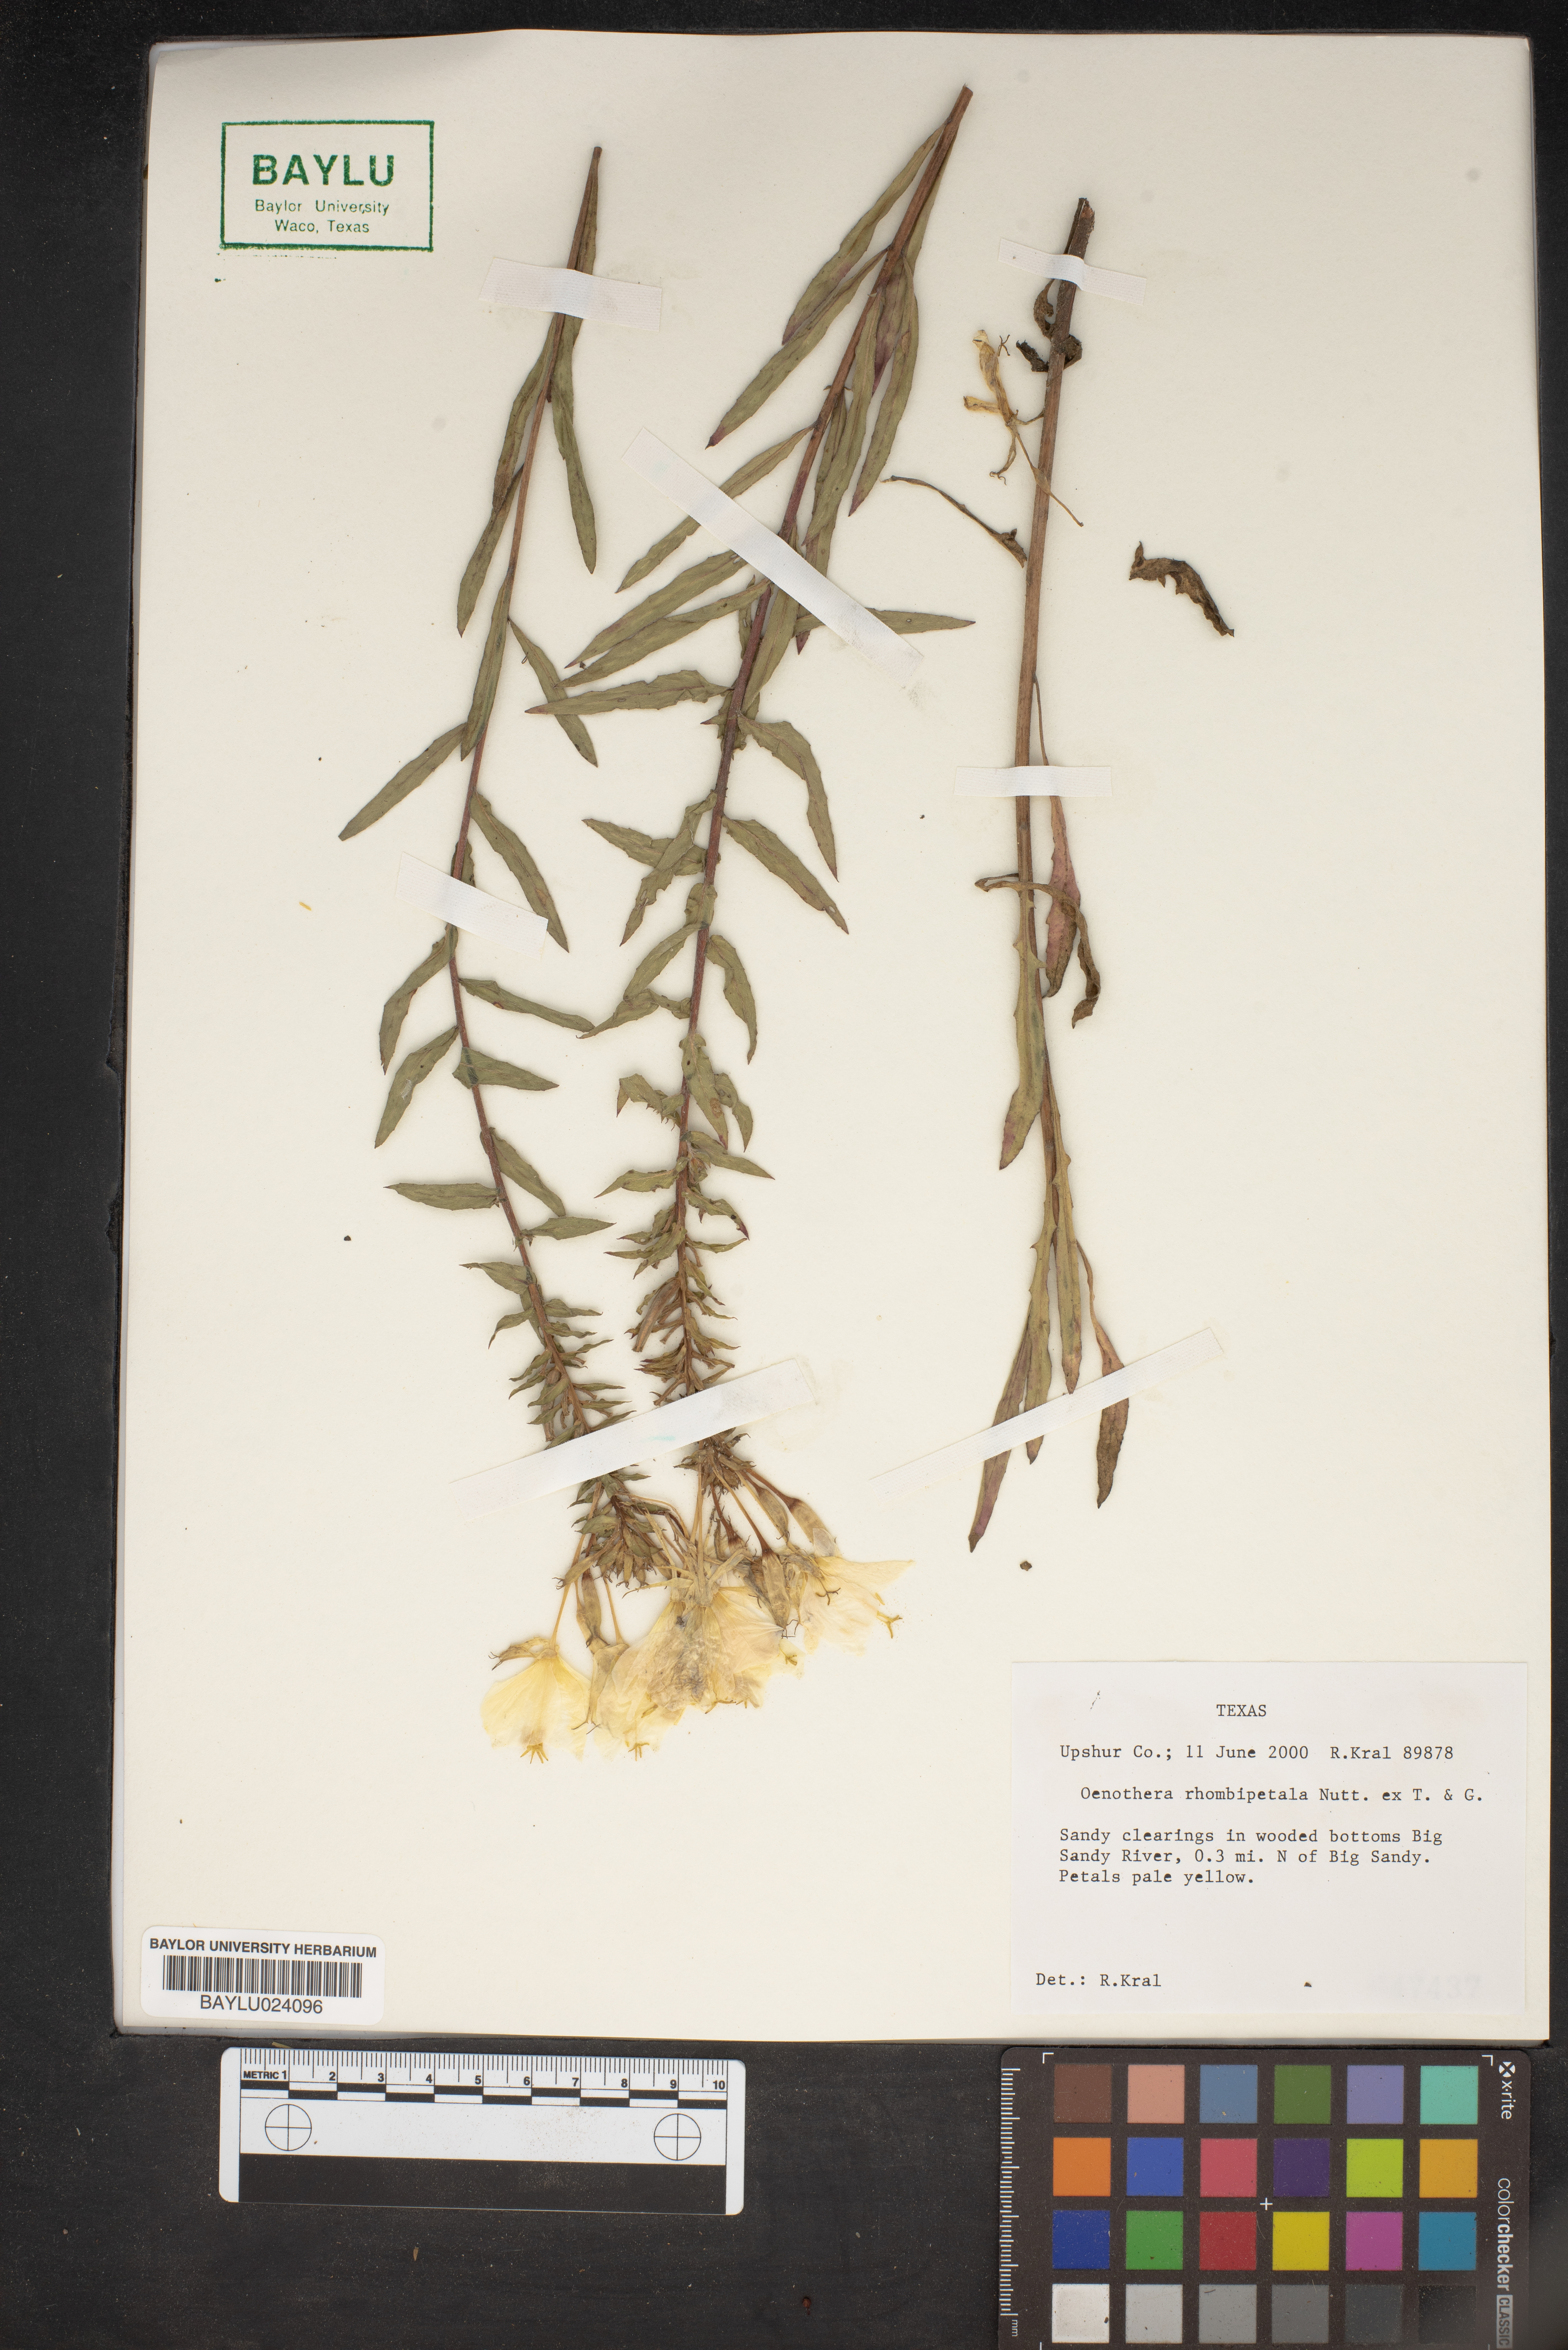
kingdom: Plantae
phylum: Tracheophyta
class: Magnoliopsida
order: Myrtales
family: Onagraceae
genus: Oenothera
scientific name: Oenothera rhombipetala
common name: Four-points evening-primrose
